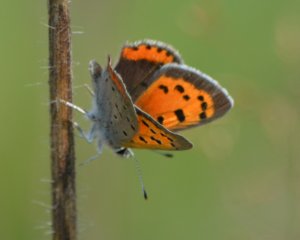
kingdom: Animalia
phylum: Arthropoda
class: Insecta
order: Lepidoptera
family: Lycaenidae
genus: Lycaena
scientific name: Lycaena phlaeas
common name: American Copper
